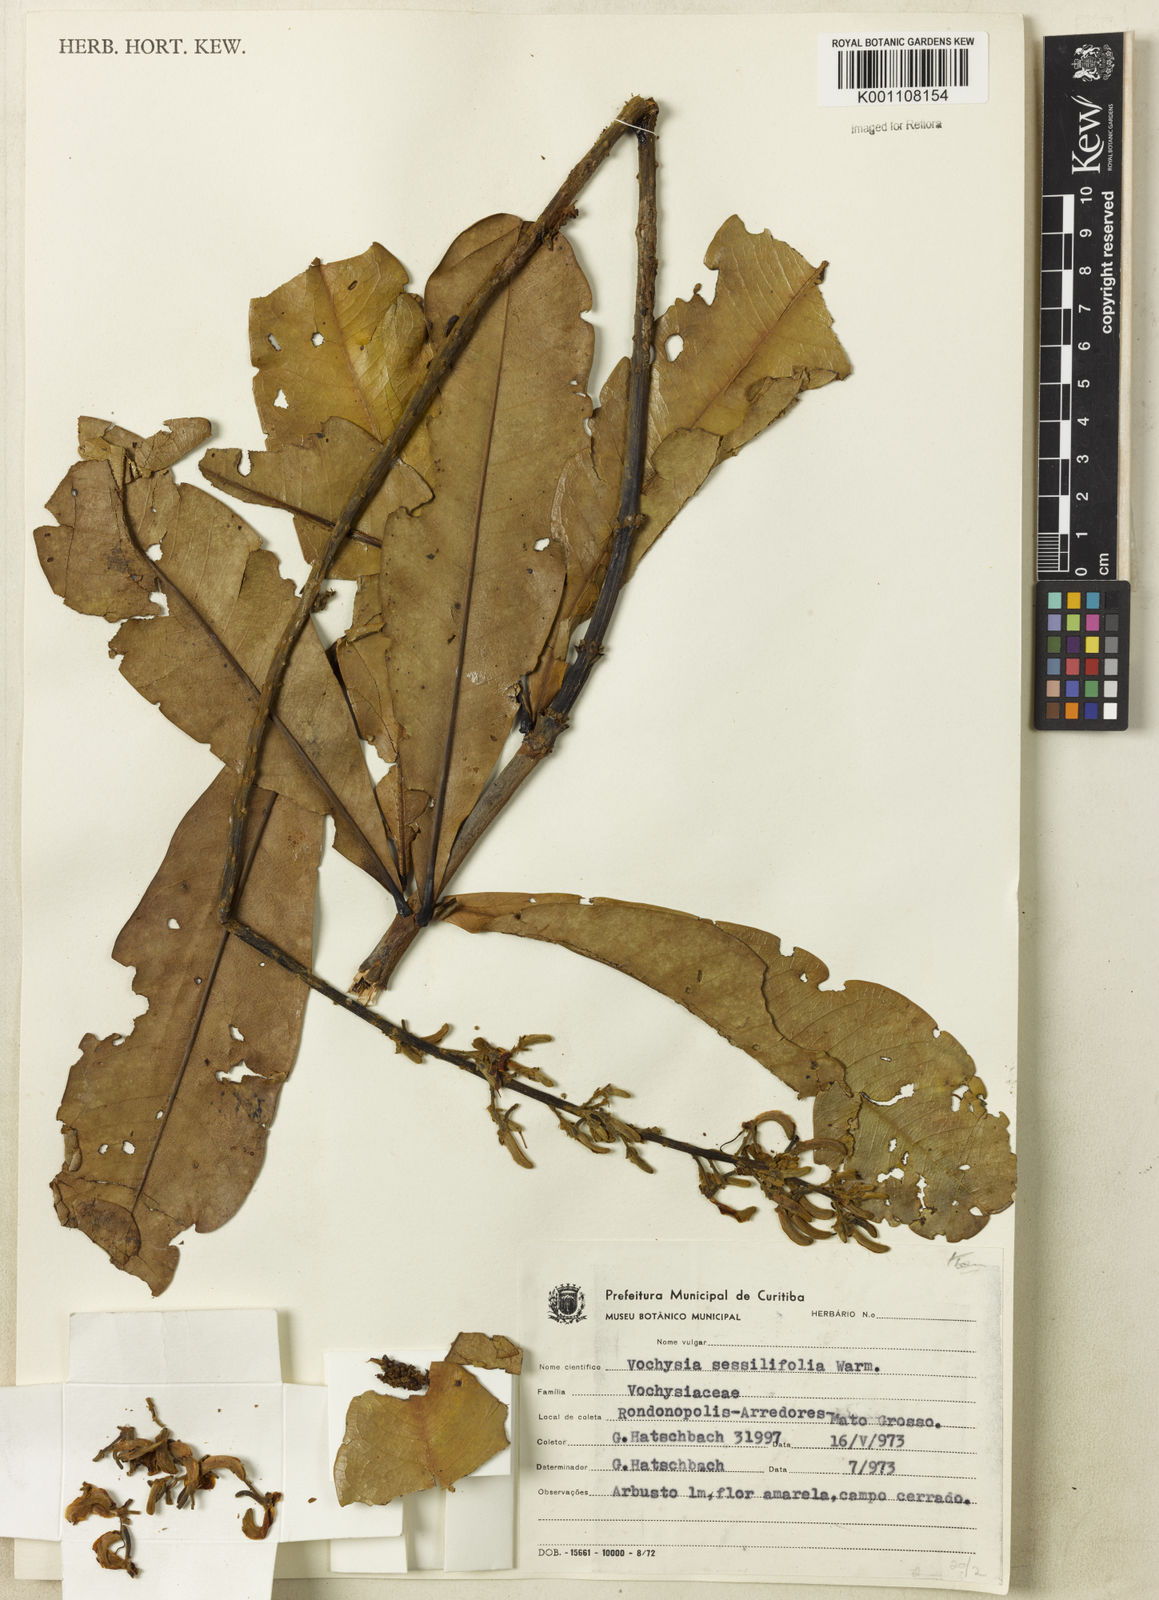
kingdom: Plantae
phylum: Tracheophyta
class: Magnoliopsida
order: Myrtales
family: Vochysiaceae
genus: Vochysia
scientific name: Vochysia sessilifolia
